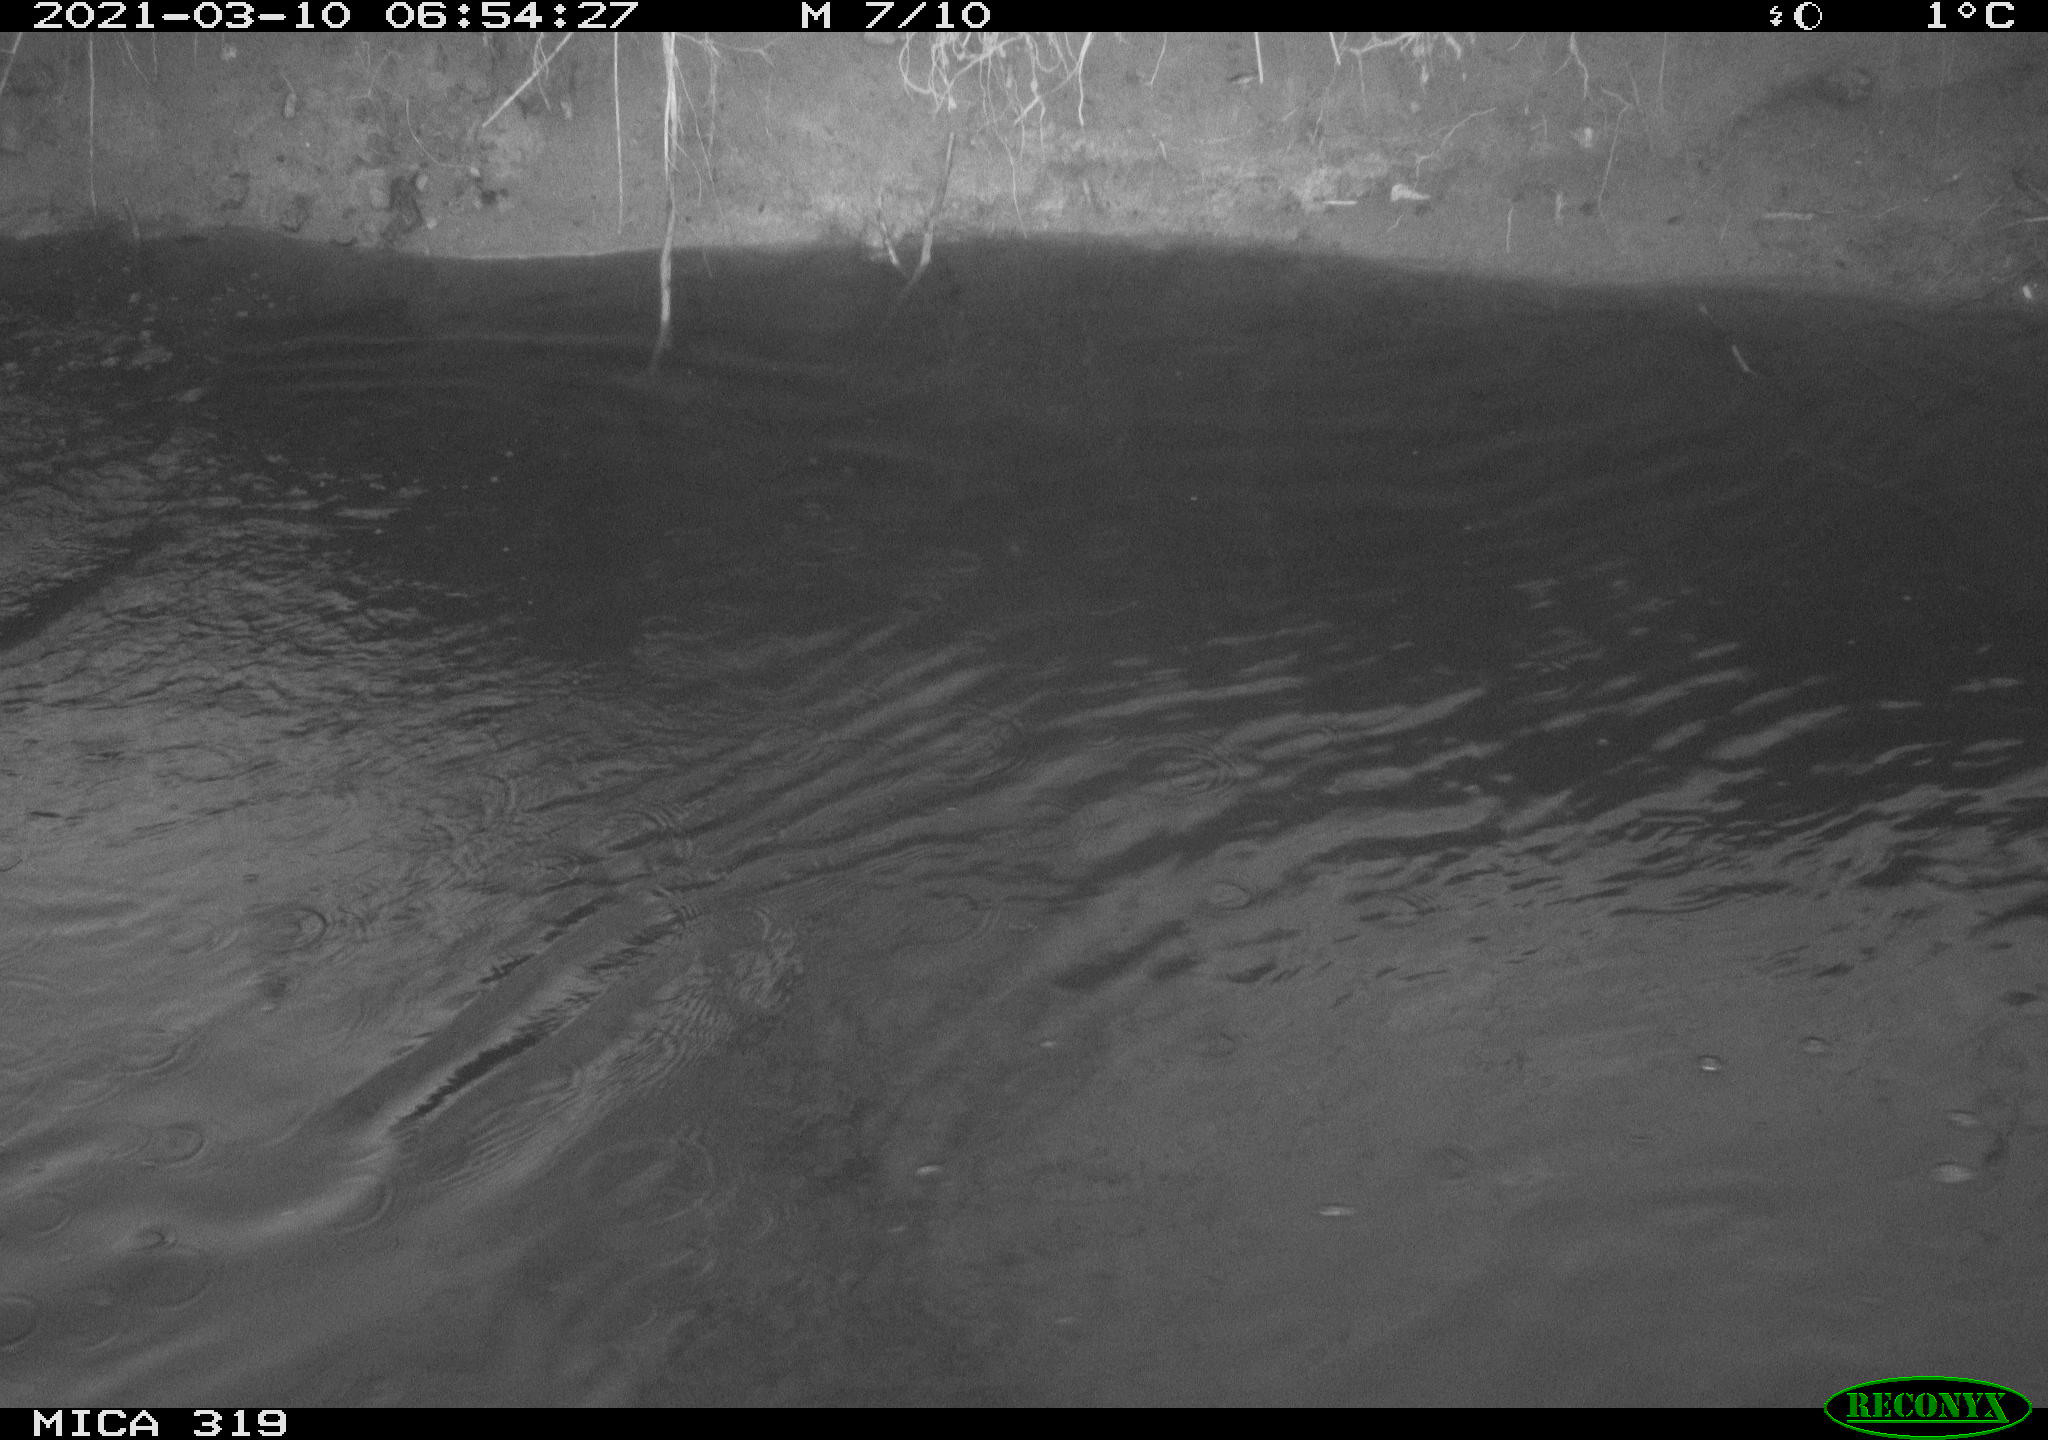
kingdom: Animalia
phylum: Chordata
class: Aves
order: Anseriformes
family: Anatidae
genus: Anas
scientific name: Anas platyrhynchos
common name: Mallard
